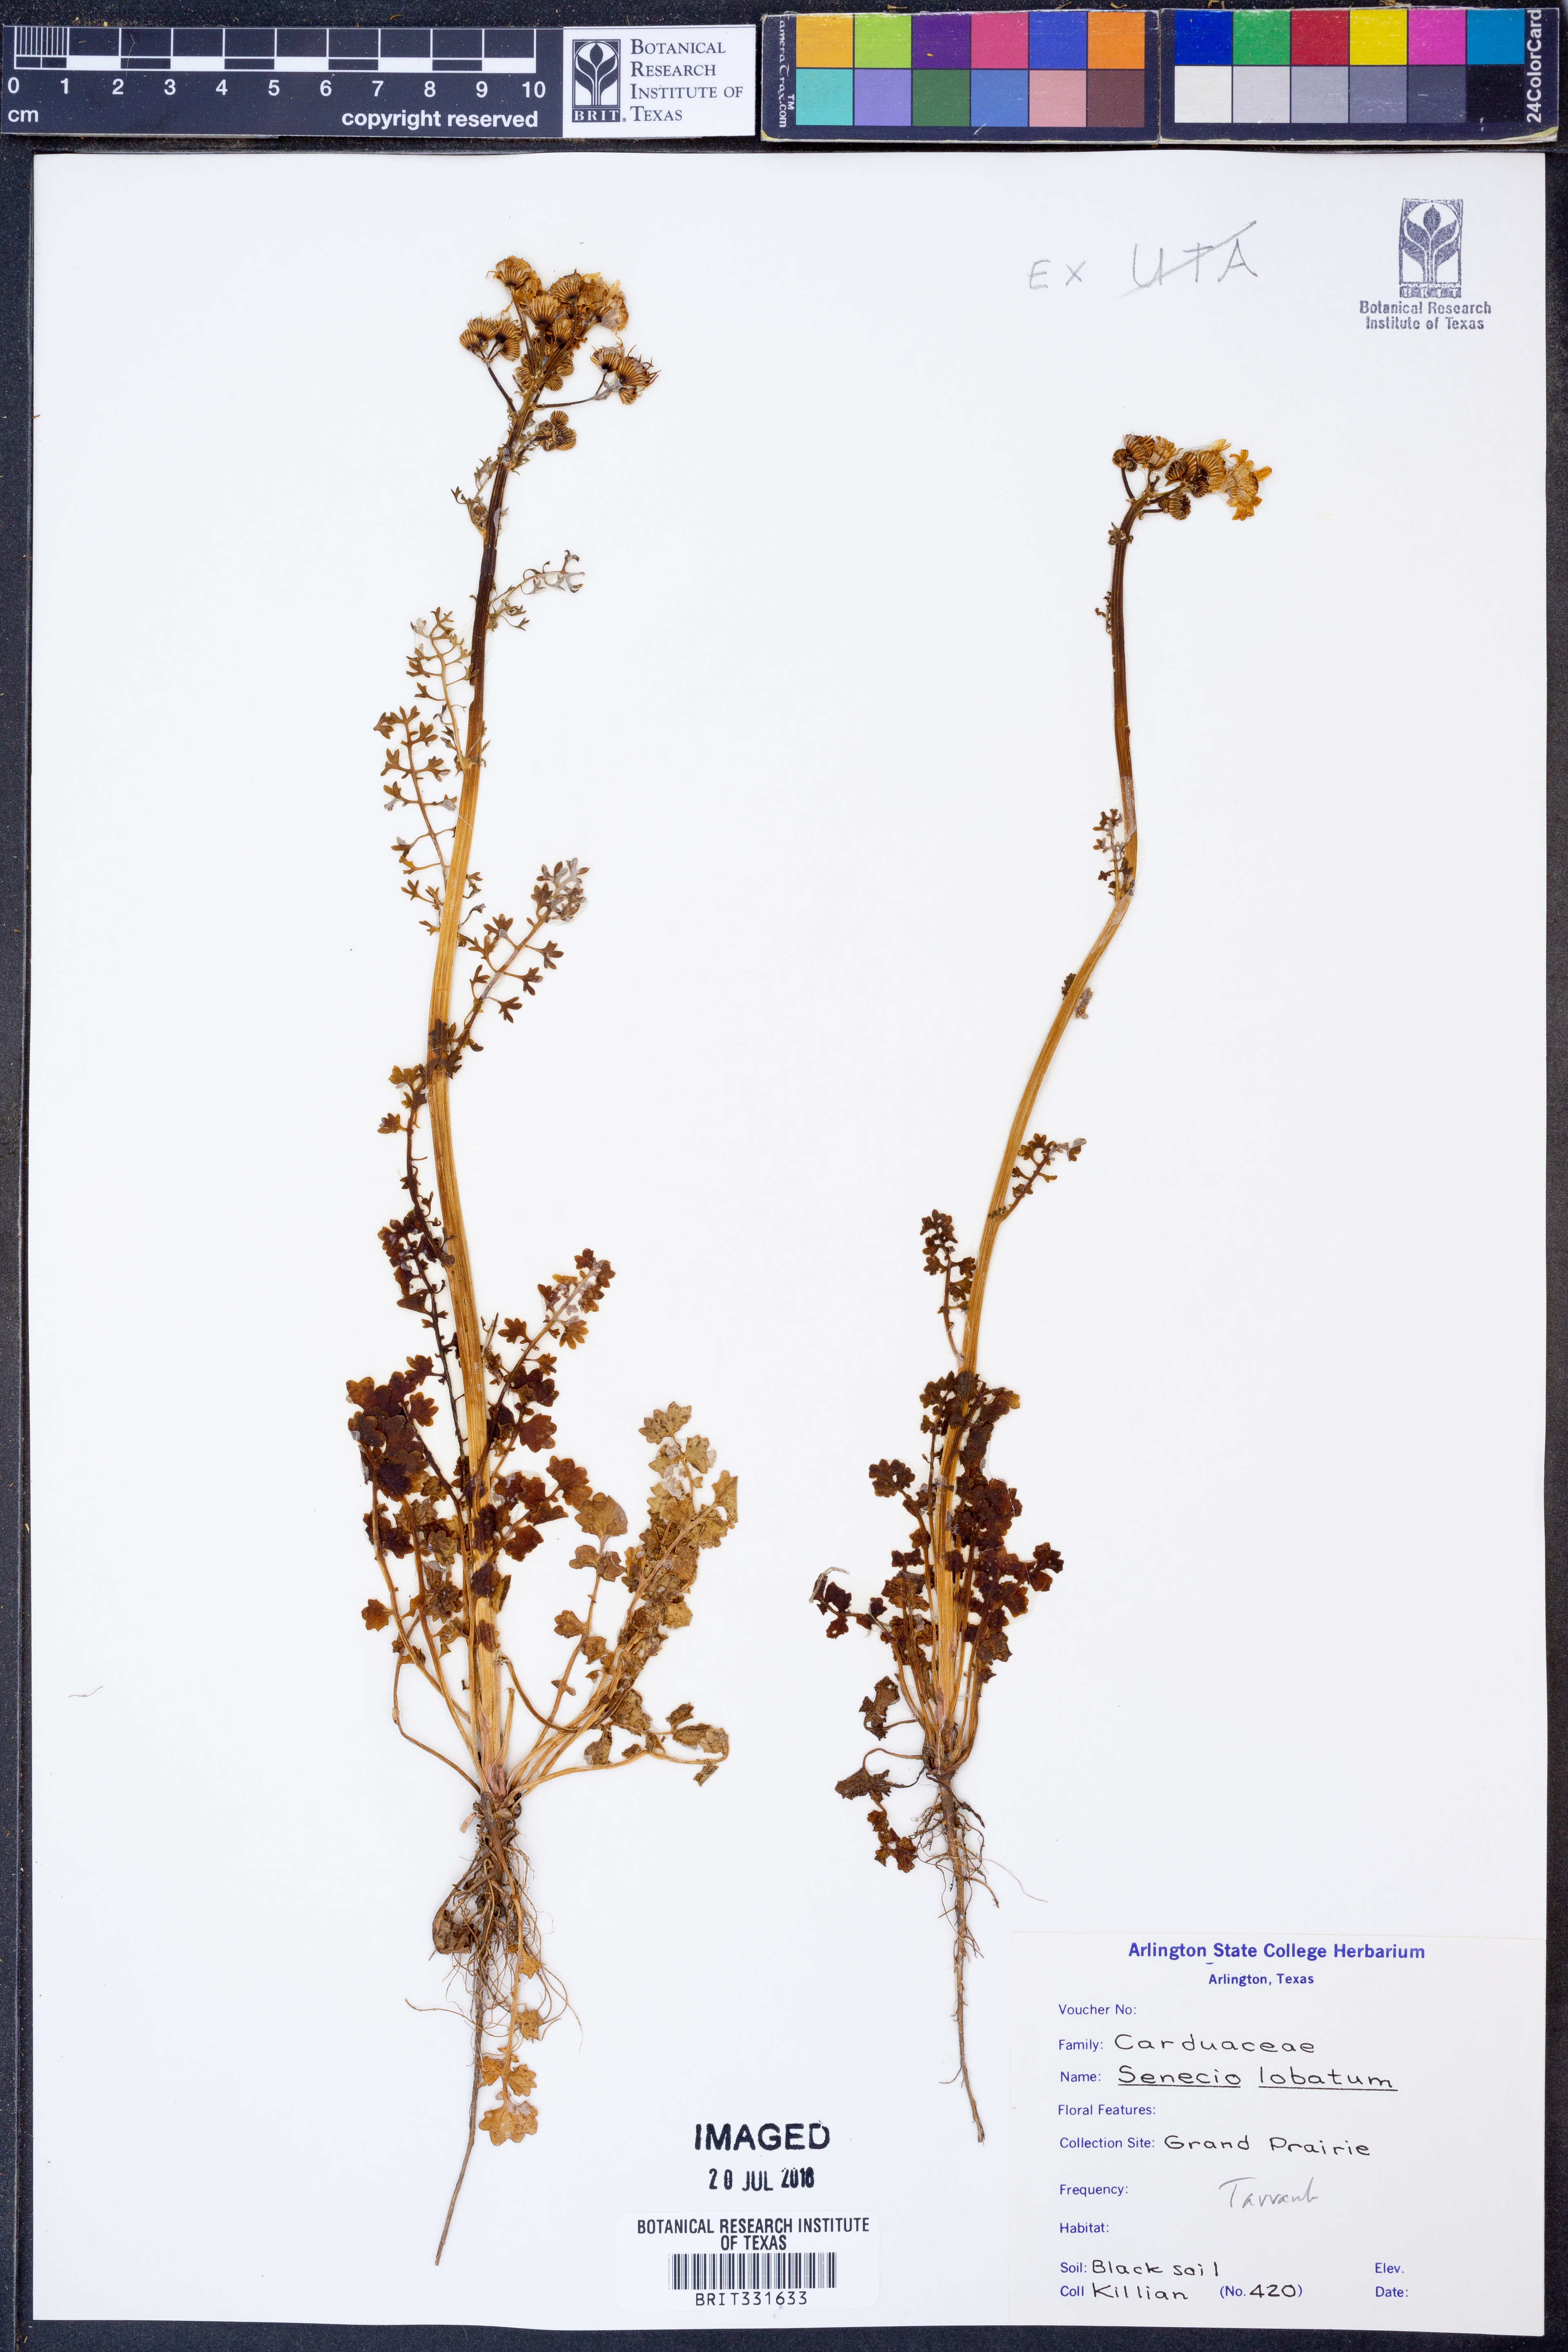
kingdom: Plantae
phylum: Tracheophyta
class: Magnoliopsida
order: Asterales
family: Asteraceae
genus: Packera
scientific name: Packera glabella
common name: Butterweed
